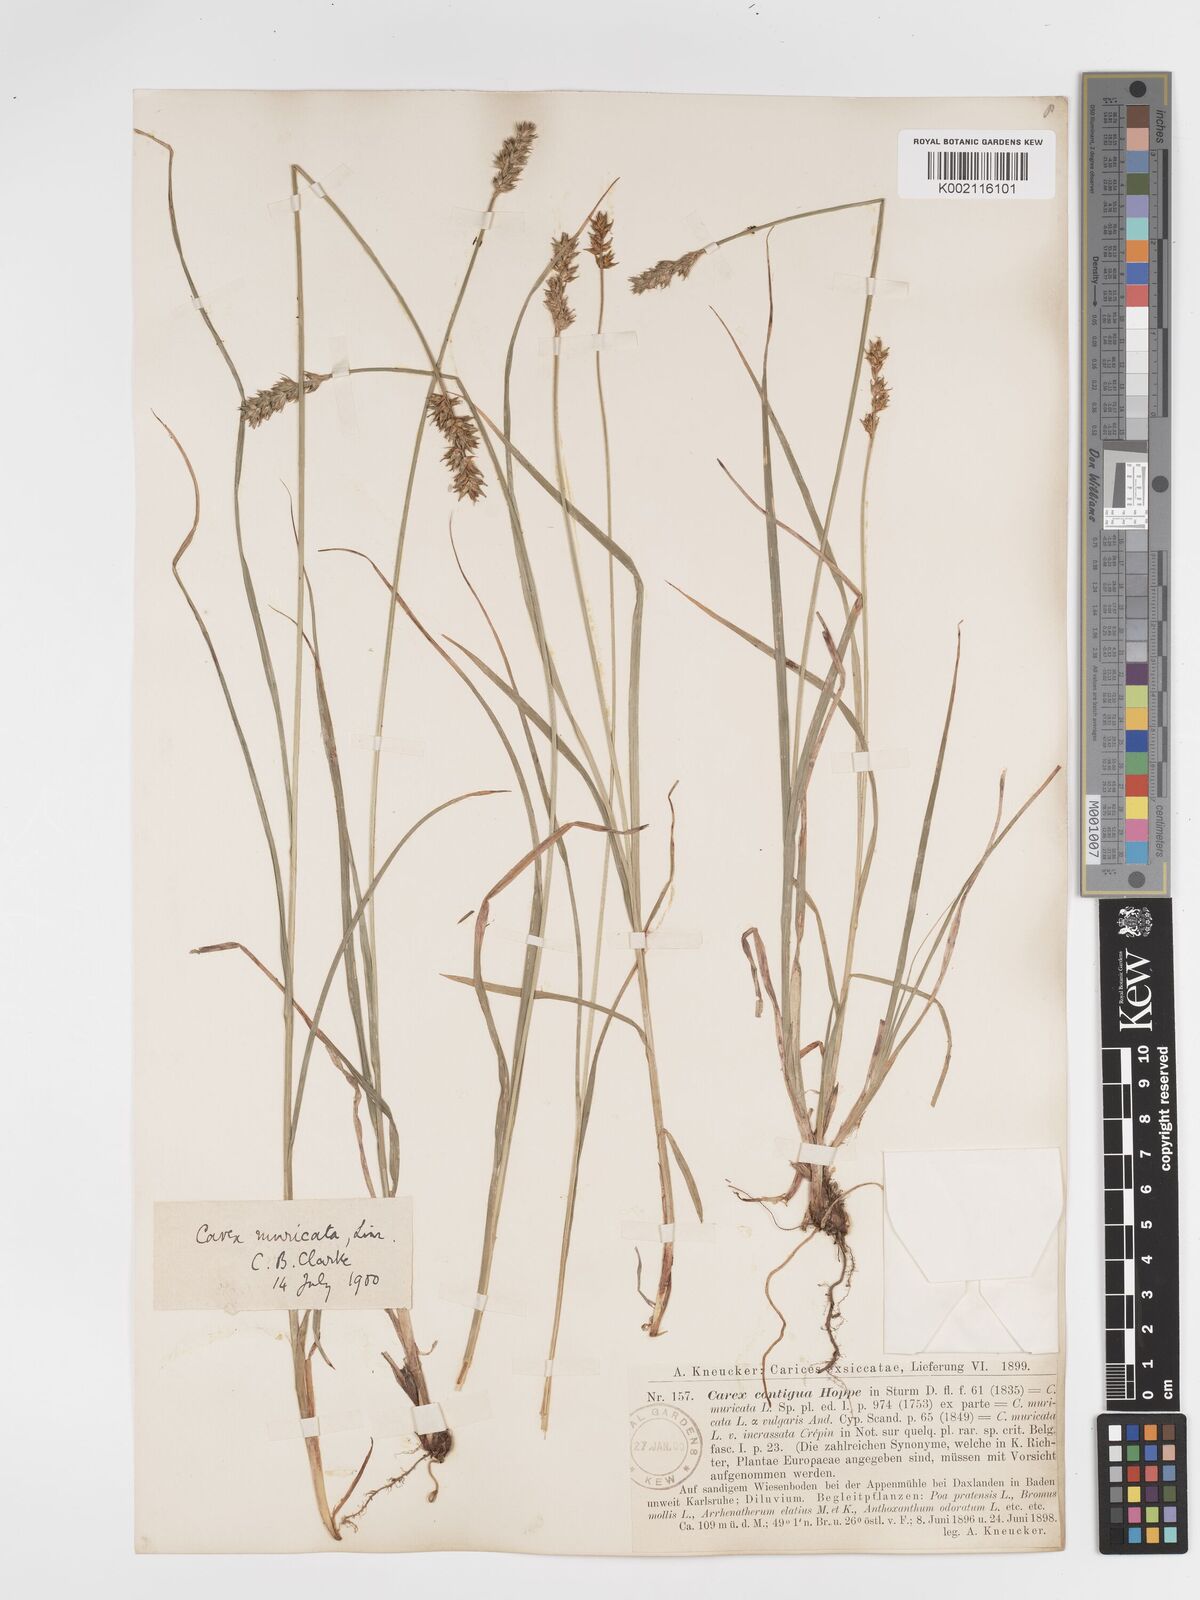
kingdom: Plantae
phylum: Tracheophyta
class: Liliopsida
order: Poales
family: Cyperaceae
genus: Carex
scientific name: Carex spicata
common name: Spiked sedge
